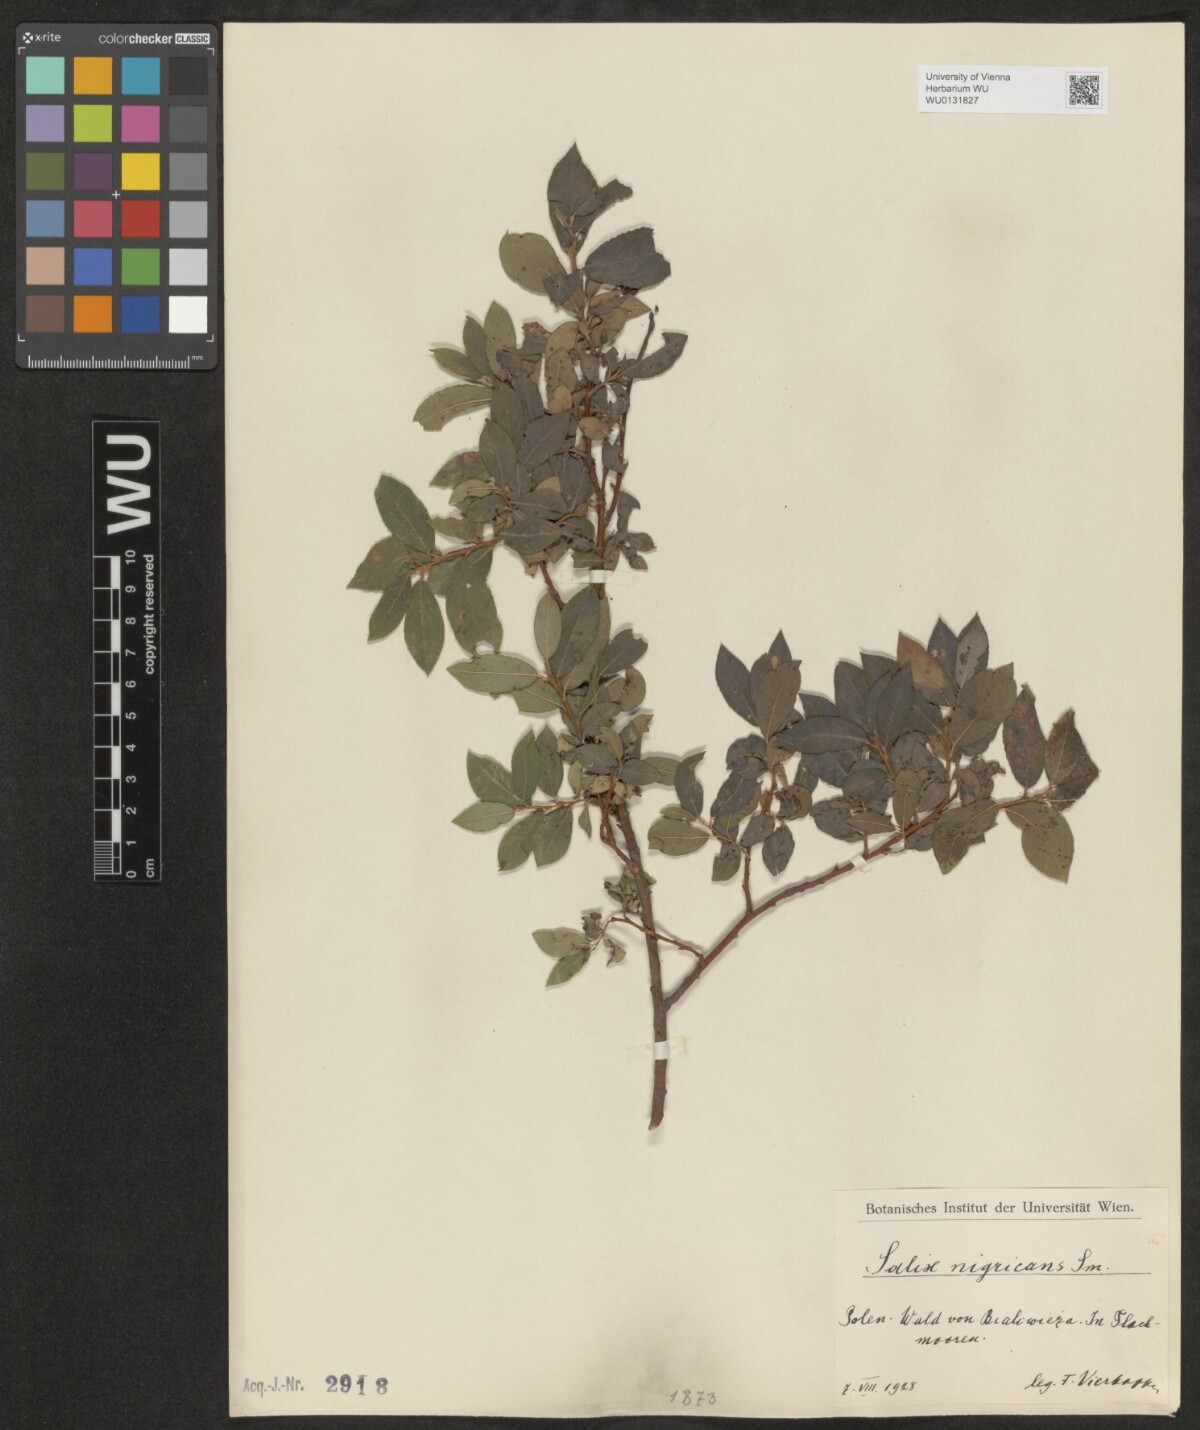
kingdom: Plantae
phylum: Tracheophyta
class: Magnoliopsida
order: Malpighiales
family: Salicaceae
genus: Salix
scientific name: Salix myrsinifolia
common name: Dark-leaved willow
